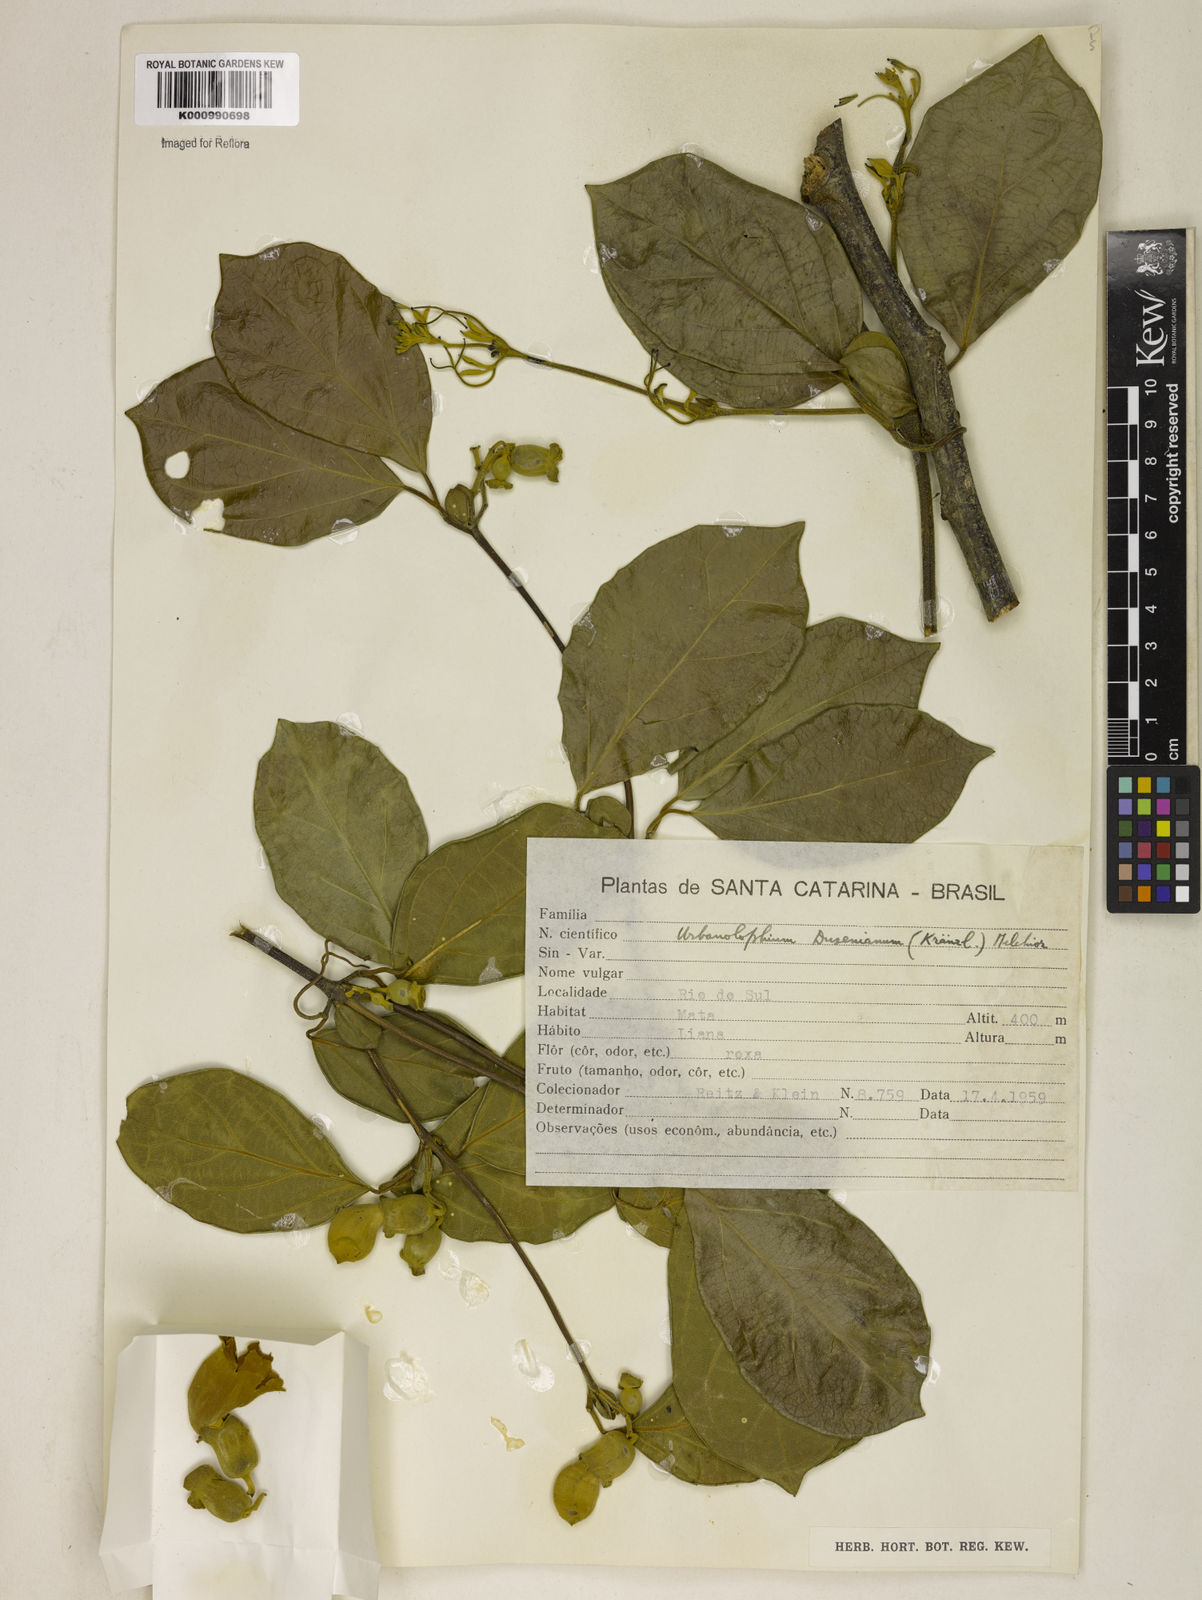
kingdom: Plantae
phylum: Tracheophyta
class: Magnoliopsida
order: Lamiales
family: Bignoniaceae
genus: Amphilophium
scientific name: Amphilophium dusenianum
